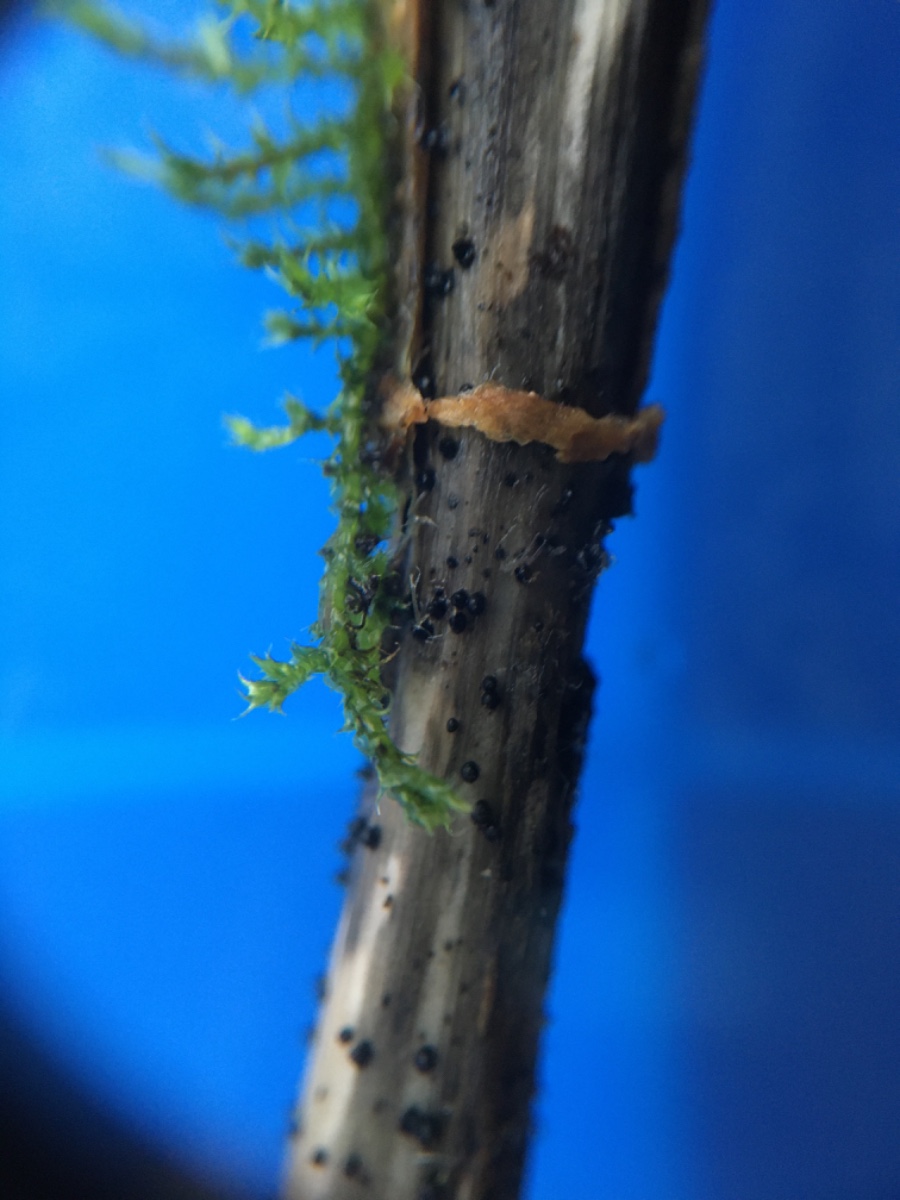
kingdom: Fungi
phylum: Ascomycota
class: Dothideomycetes
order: Pleosporales
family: Leptosphaeriaceae
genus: Leptosphaeria
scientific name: Leptosphaeria acuta
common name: spids kulkegle
